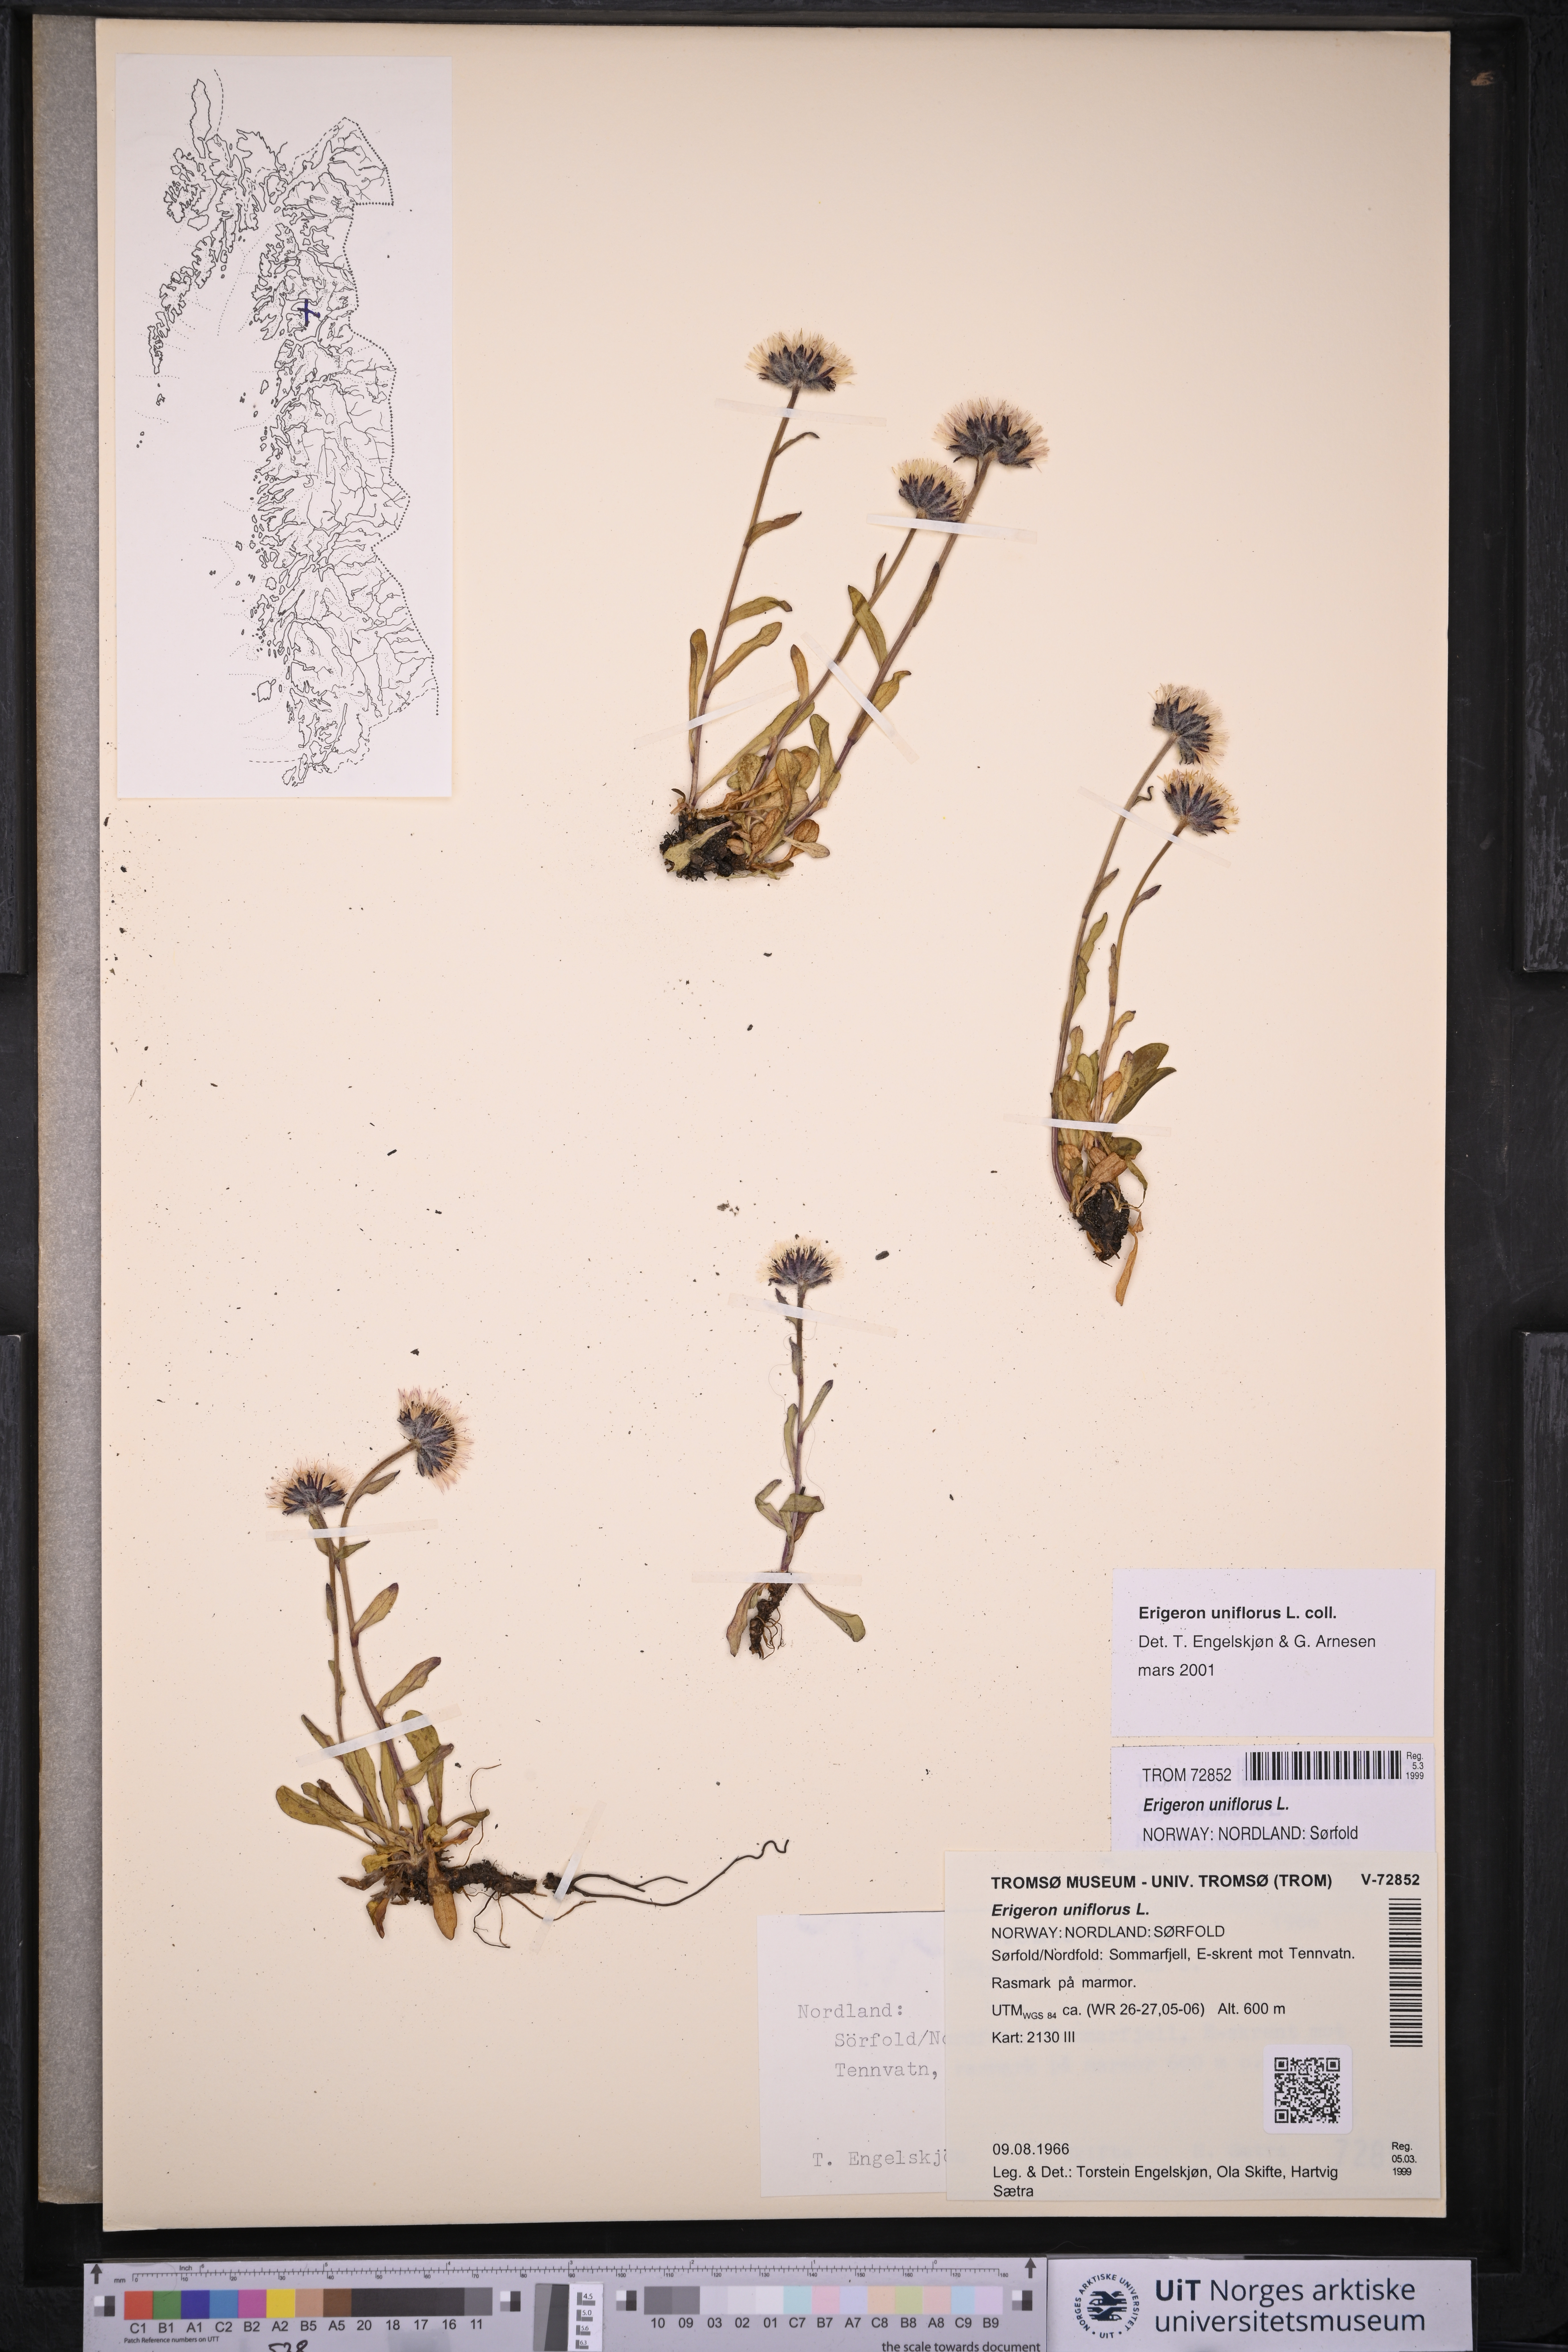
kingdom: Plantae
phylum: Tracheophyta
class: Magnoliopsida
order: Asterales
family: Asteraceae
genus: Erigeron
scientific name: Erigeron uniflorus
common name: Northern daisy
